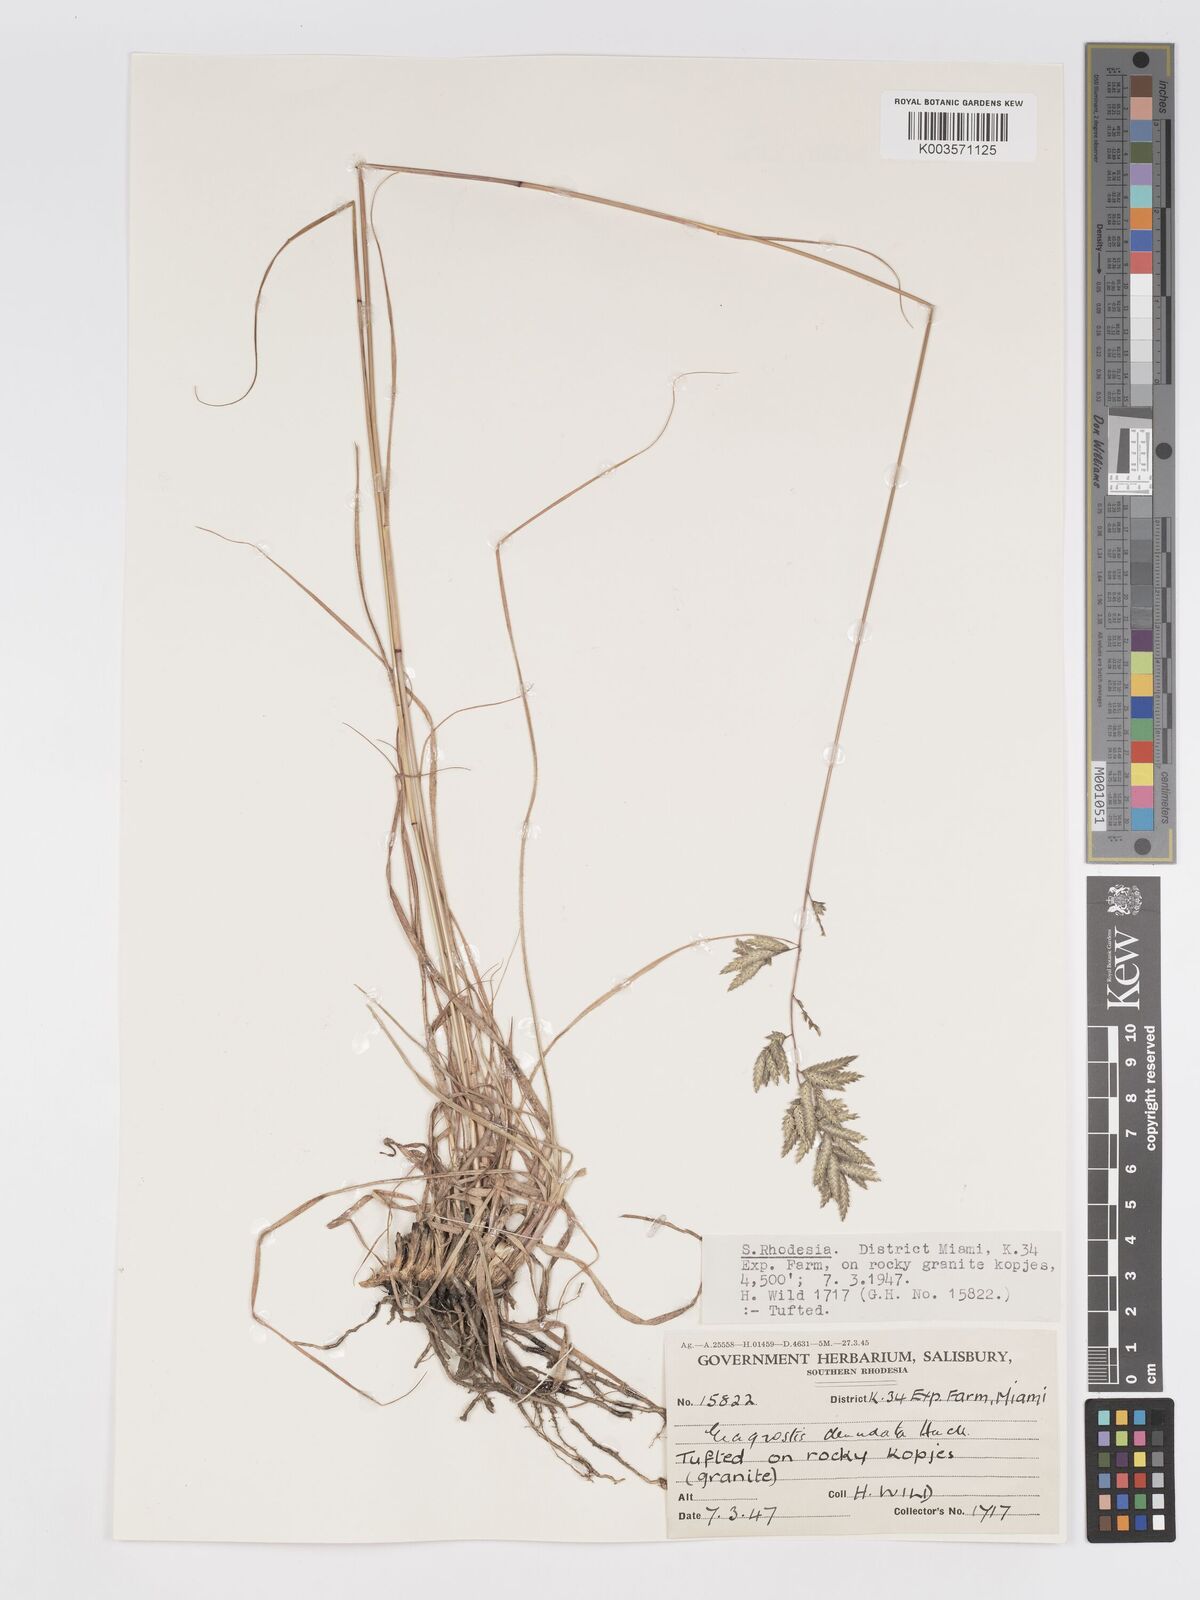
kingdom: Plantae
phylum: Tracheophyta
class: Liliopsida
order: Poales
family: Poaceae
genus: Eragrostis
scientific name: Eragrostis nindensis
